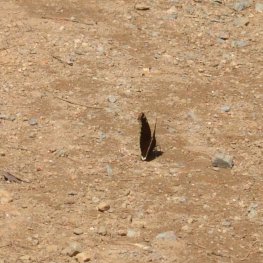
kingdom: Animalia
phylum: Arthropoda
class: Insecta
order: Lepidoptera
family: Nymphalidae
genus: Nymphalis
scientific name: Nymphalis antiopa
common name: Mourning Cloak
